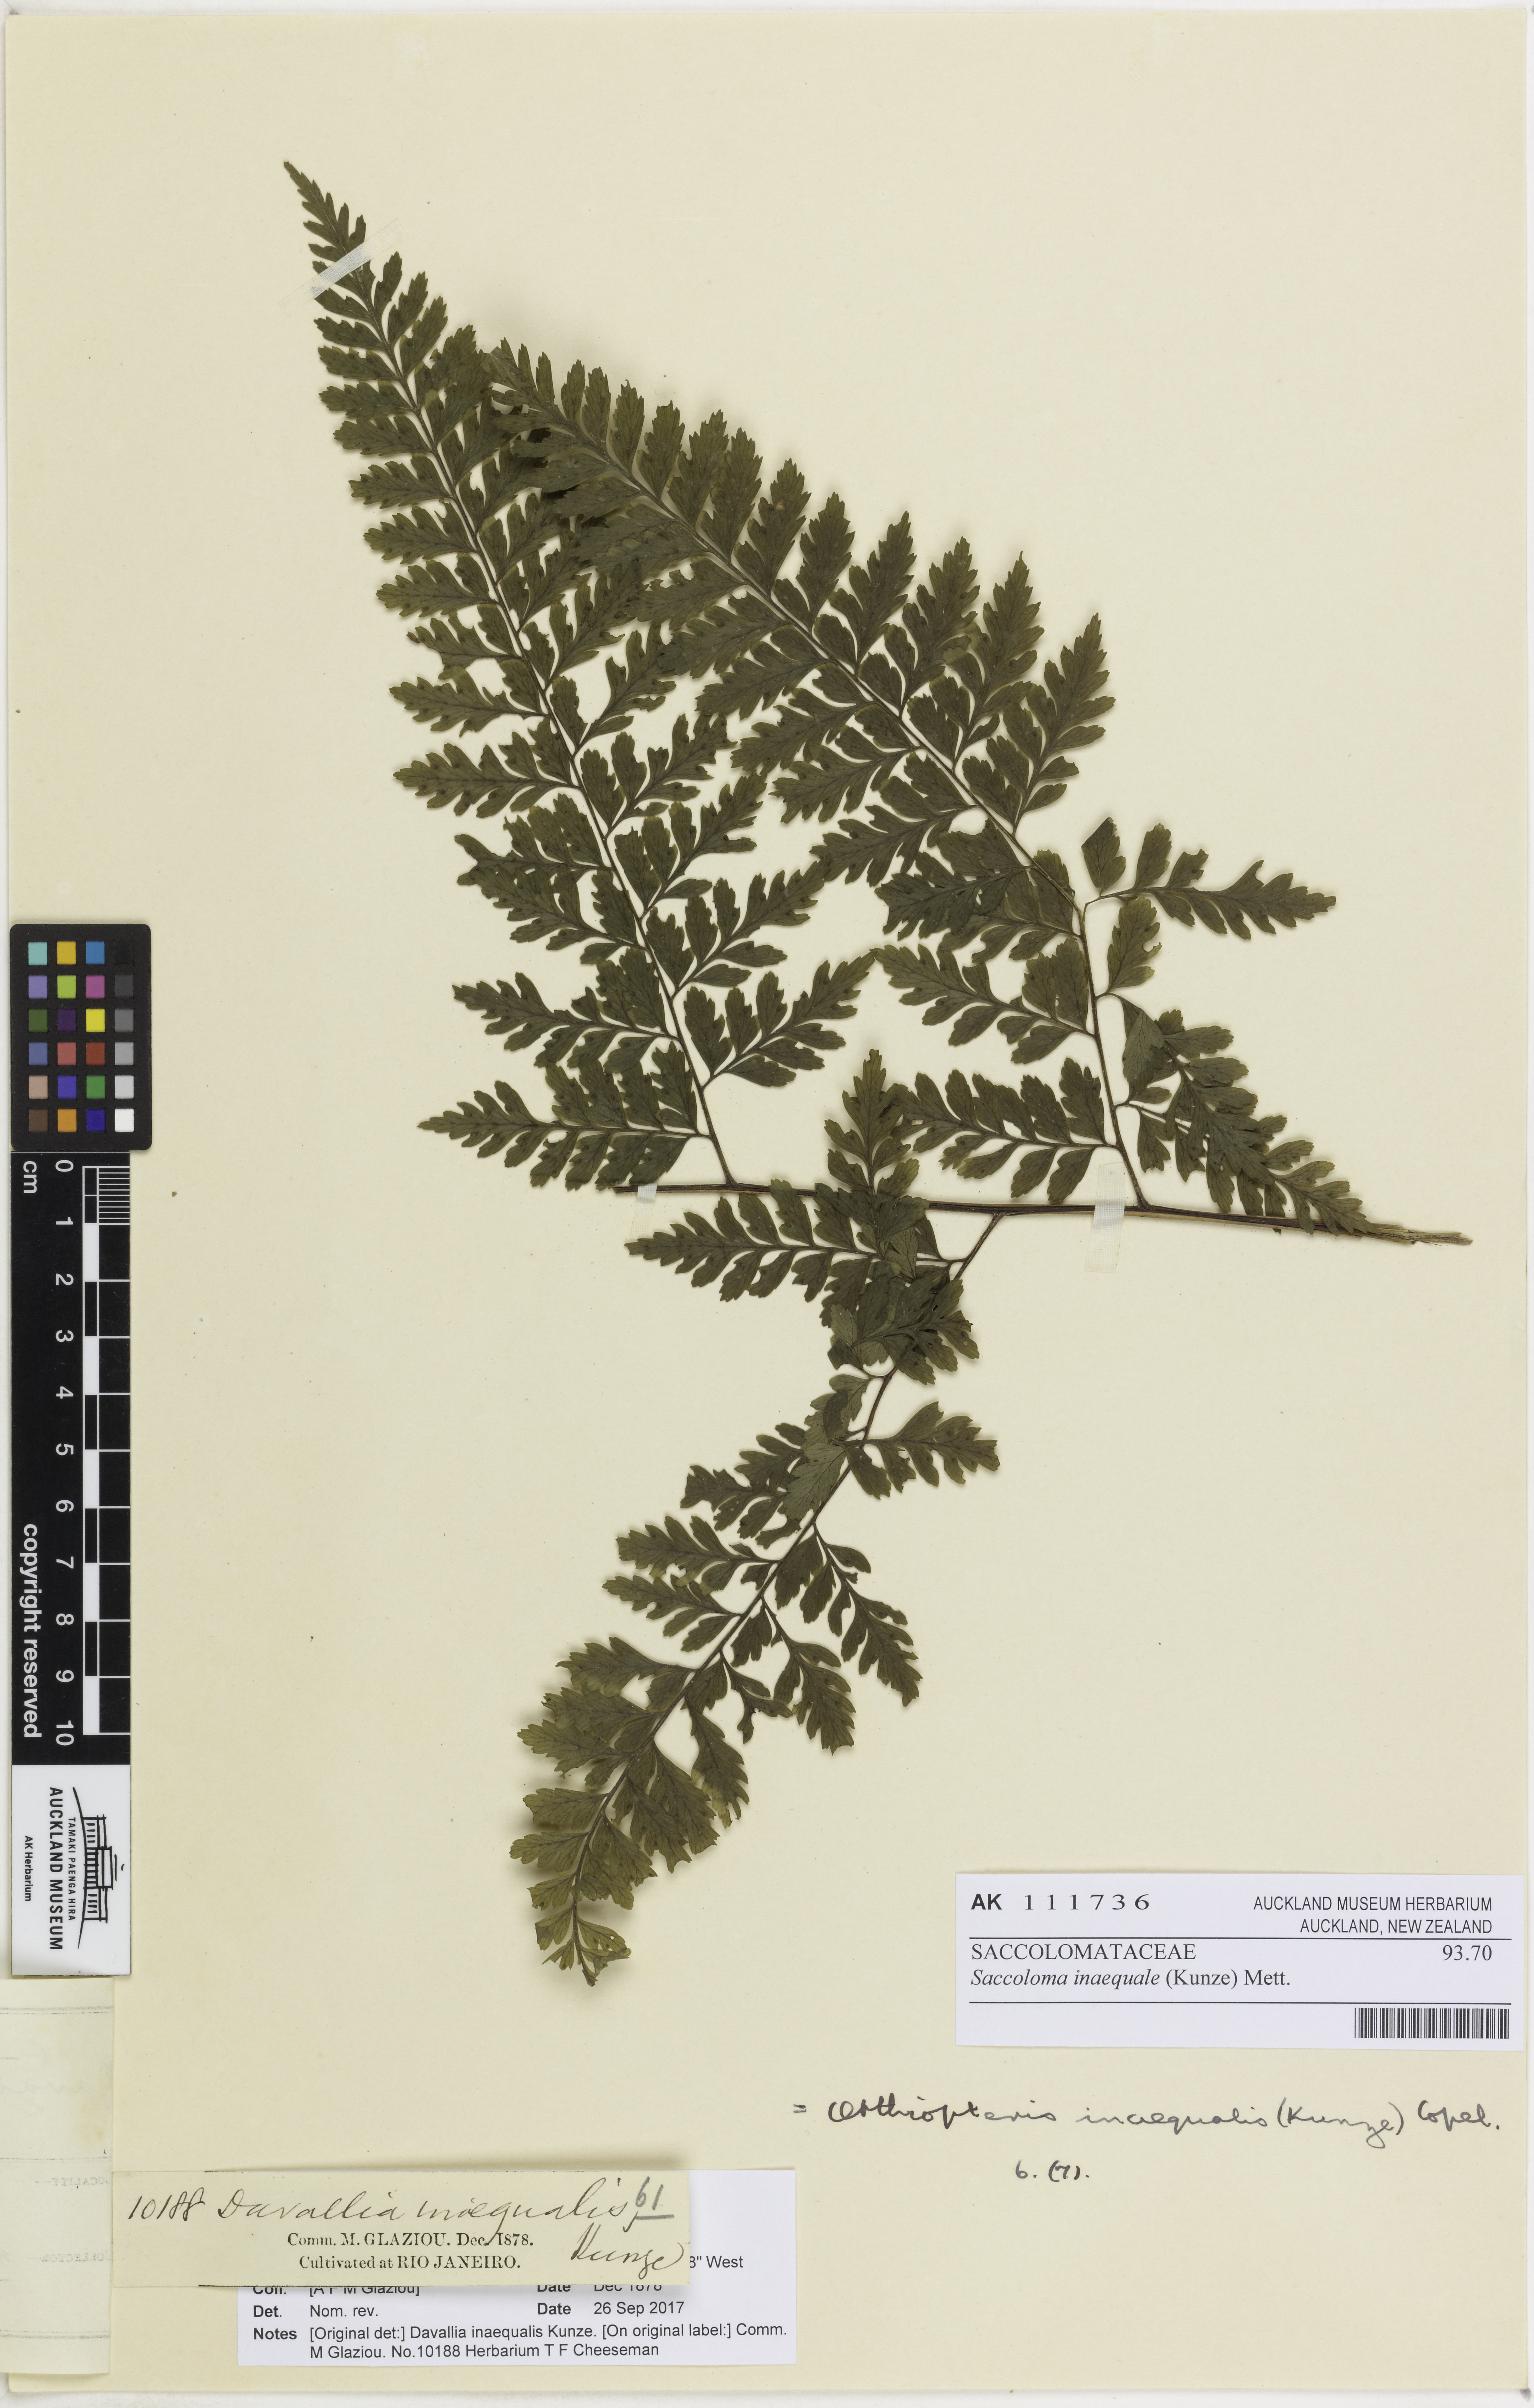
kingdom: Plantae
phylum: Tracheophyta
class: Polypodiopsida
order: Polypodiales
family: Saccolomataceae
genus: Saccoloma
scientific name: Saccoloma inaequale
